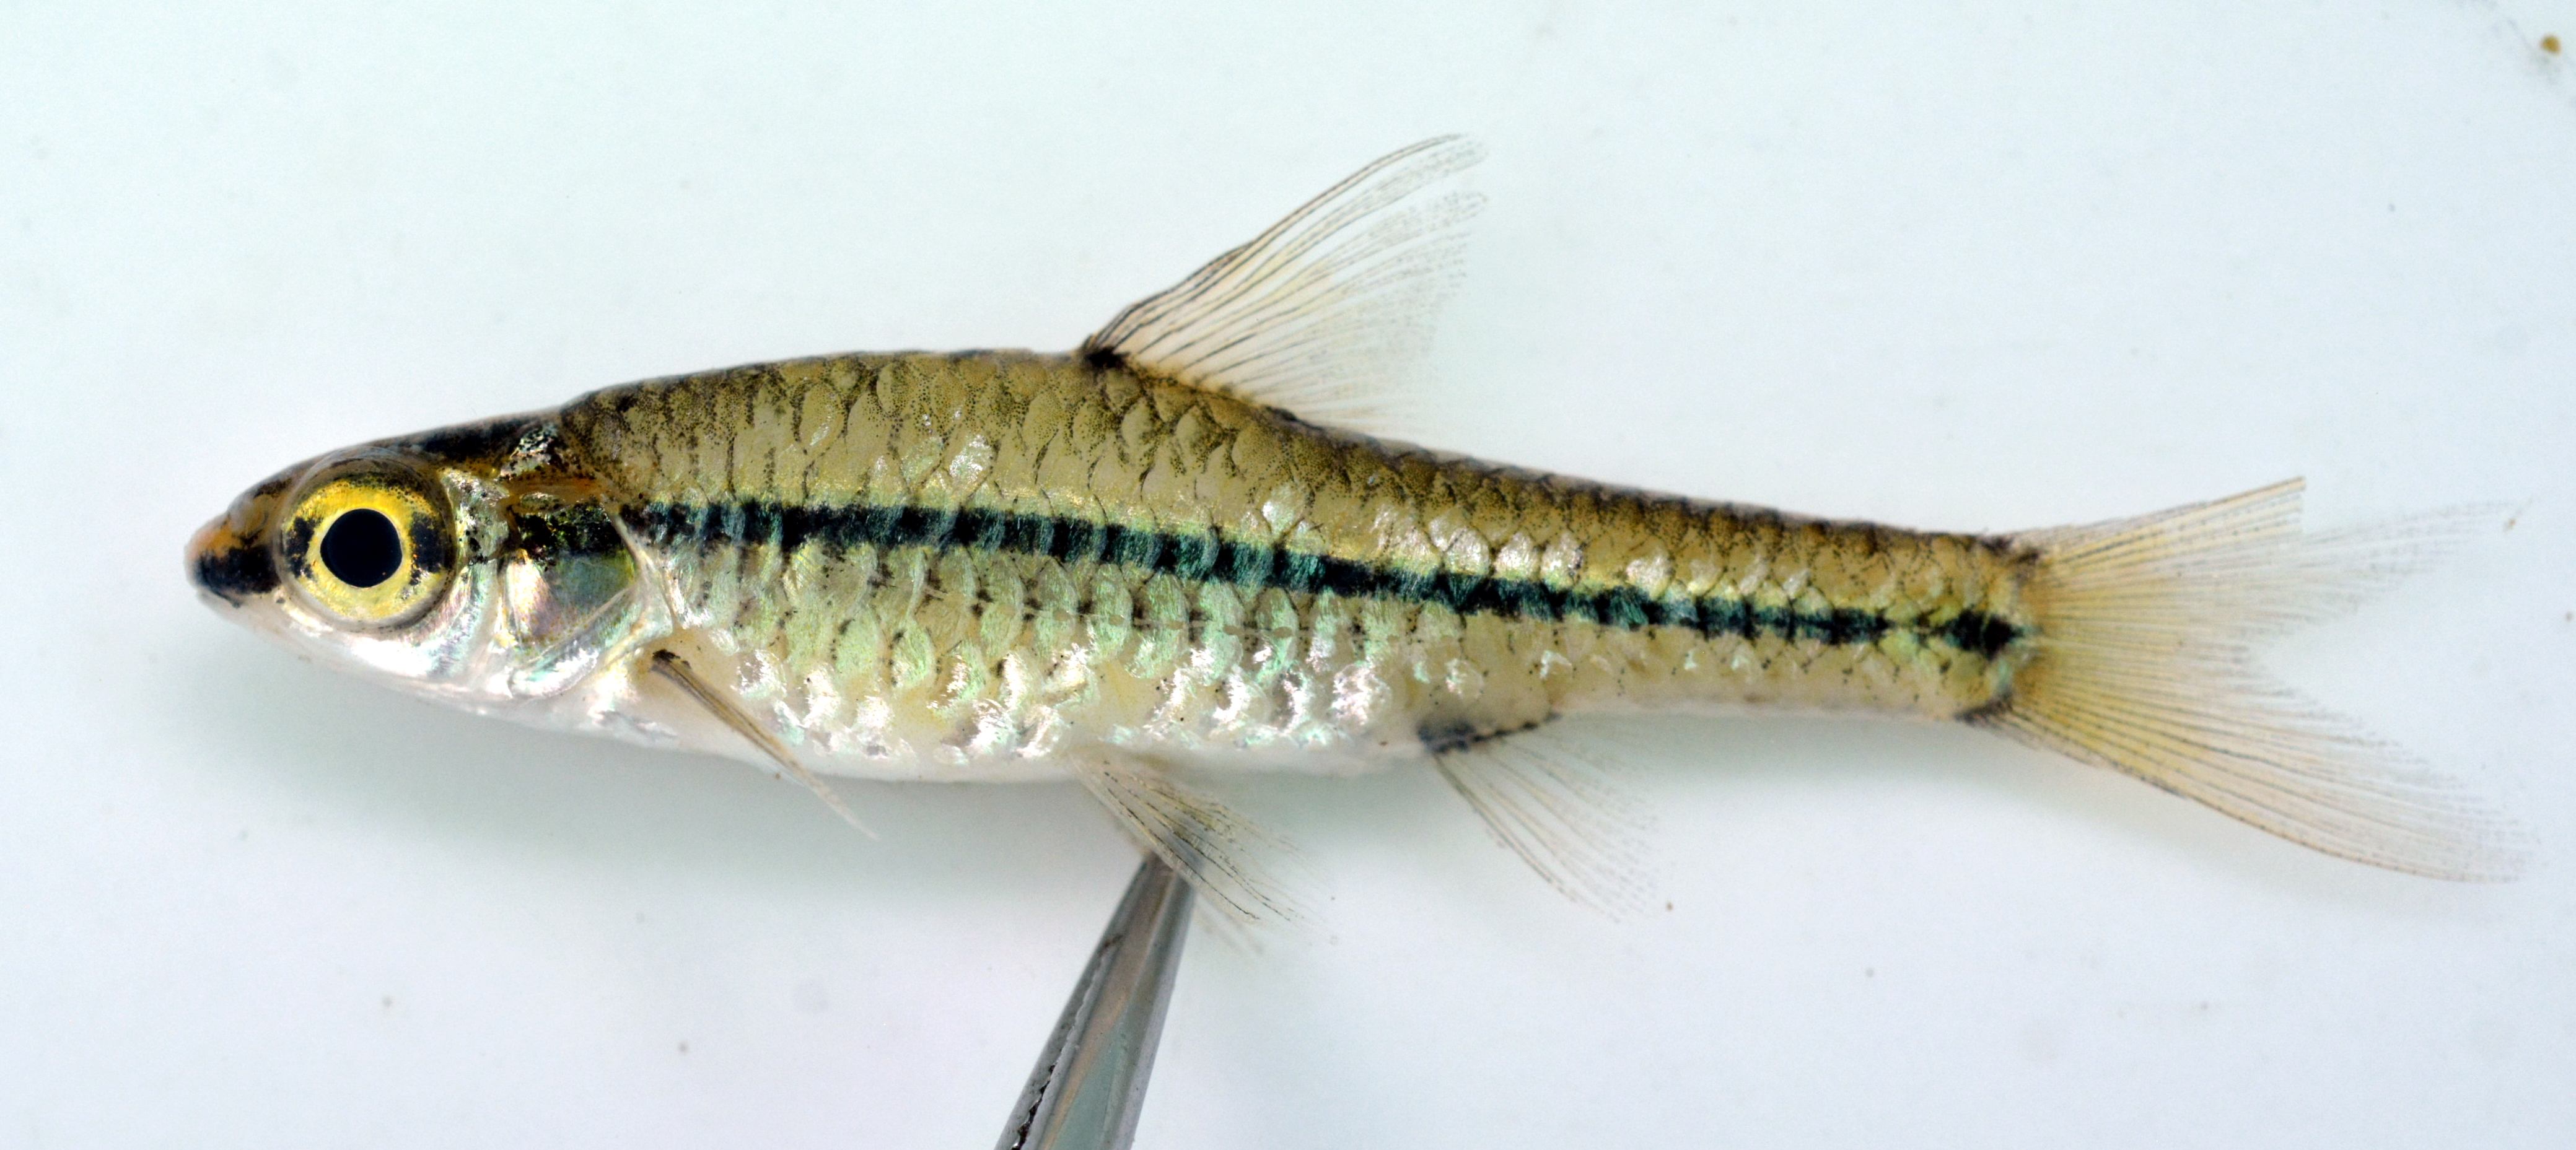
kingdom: Animalia
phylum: Chordata
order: Cypriniformes
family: Cyprinidae
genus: Enteromius
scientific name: Enteromius barnardi
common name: Blackback barb
